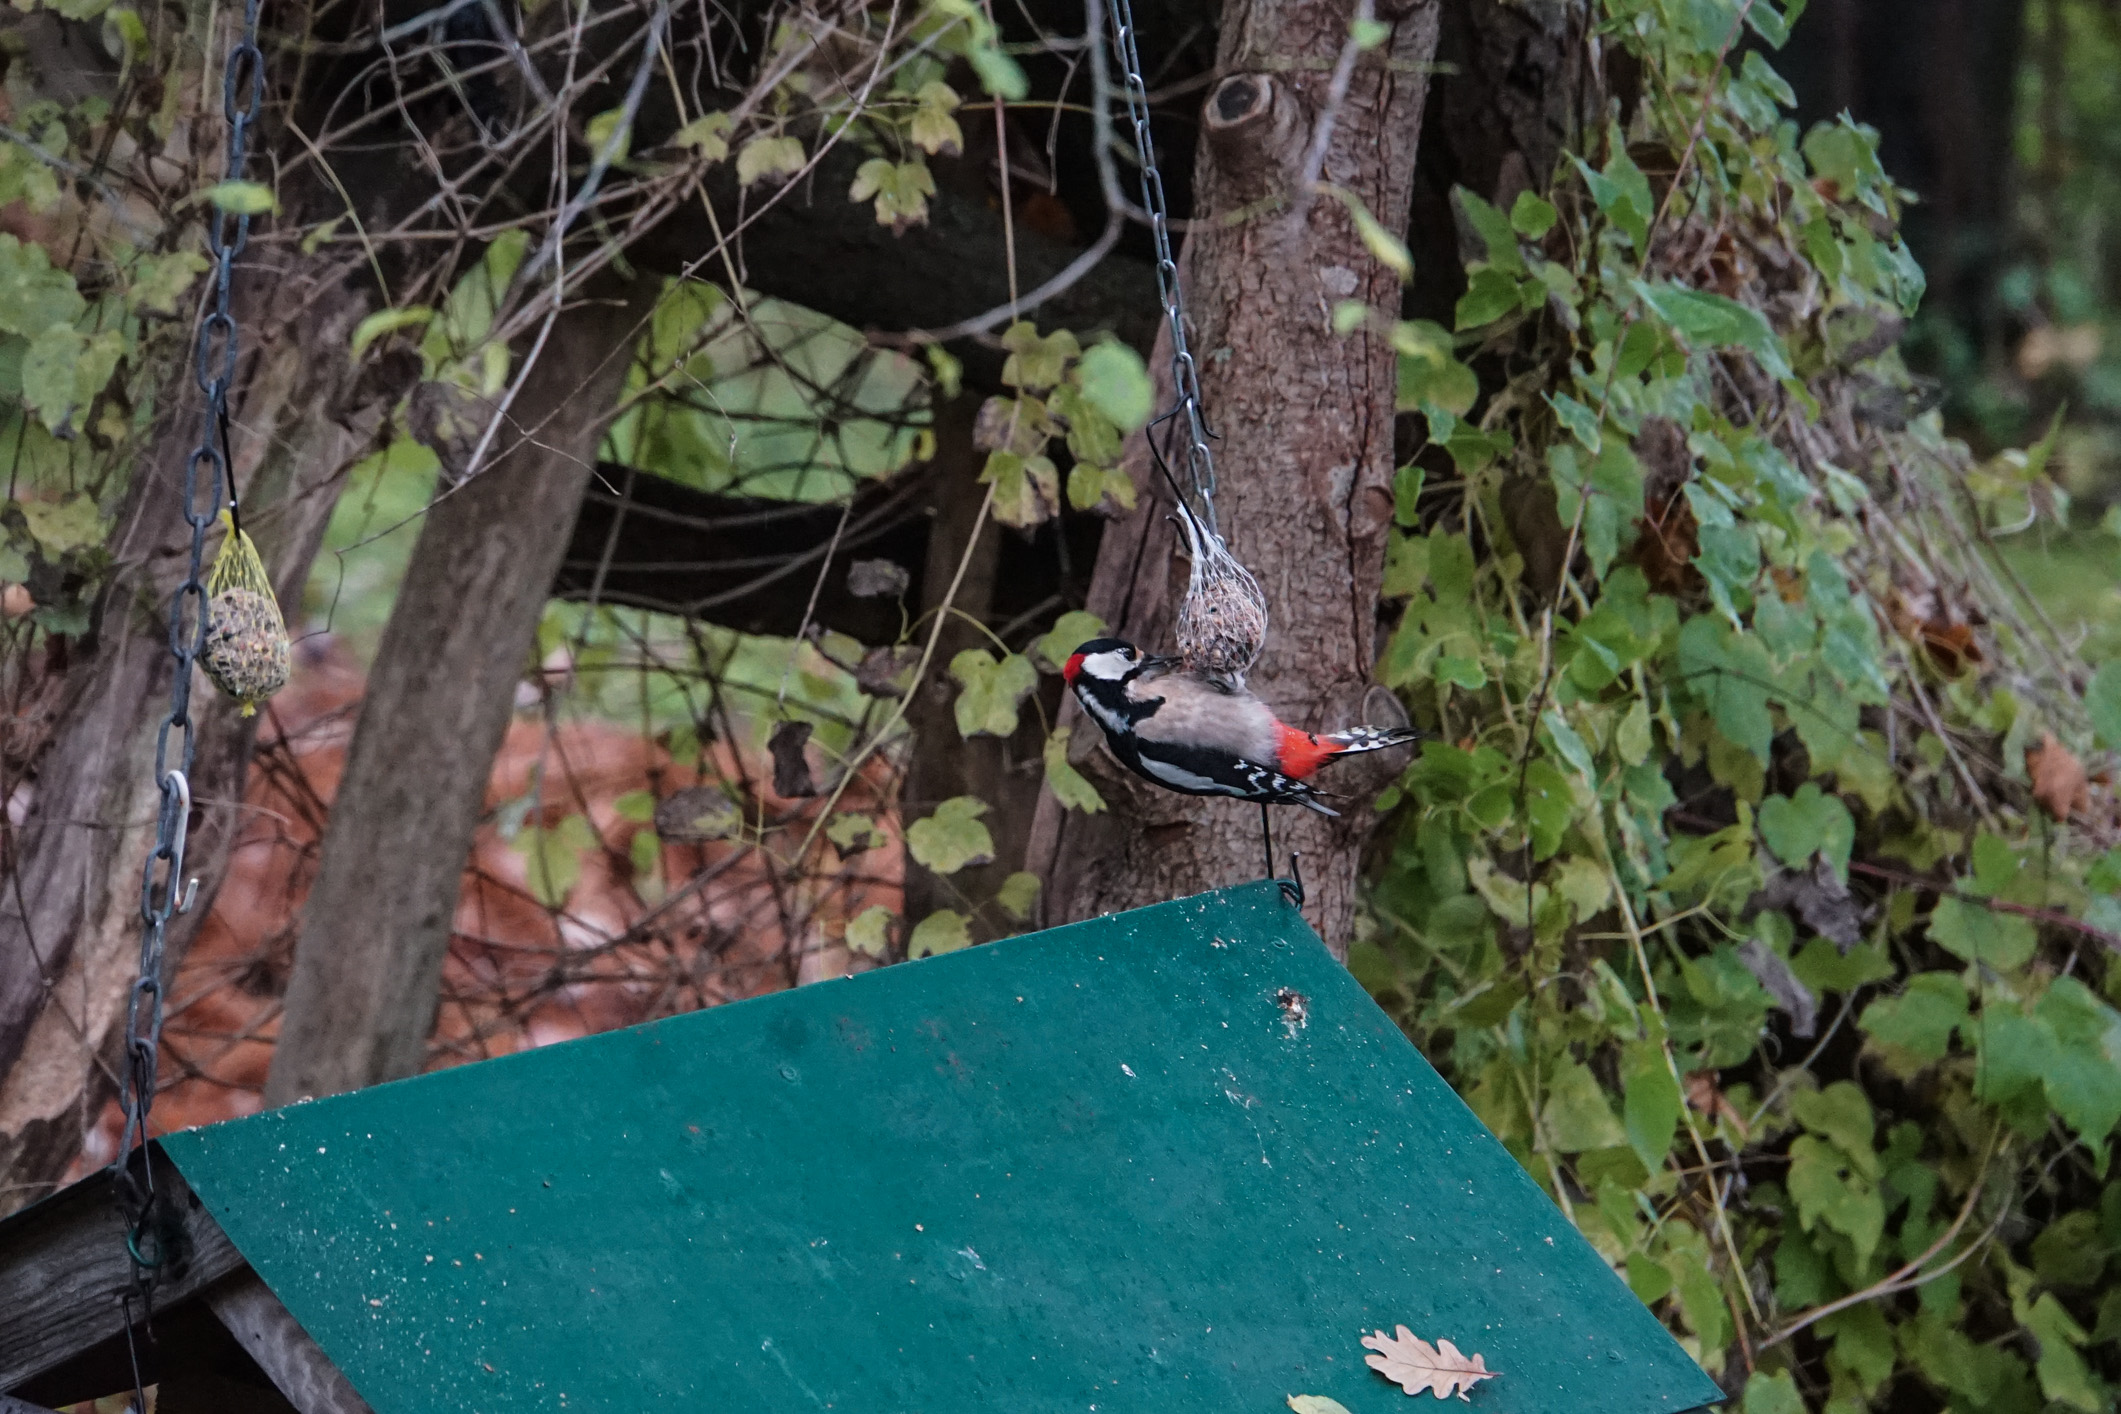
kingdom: Animalia
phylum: Chordata
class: Aves
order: Piciformes
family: Picidae
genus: Dendrocopos
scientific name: Dendrocopos major
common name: Great spotted woodpecker
